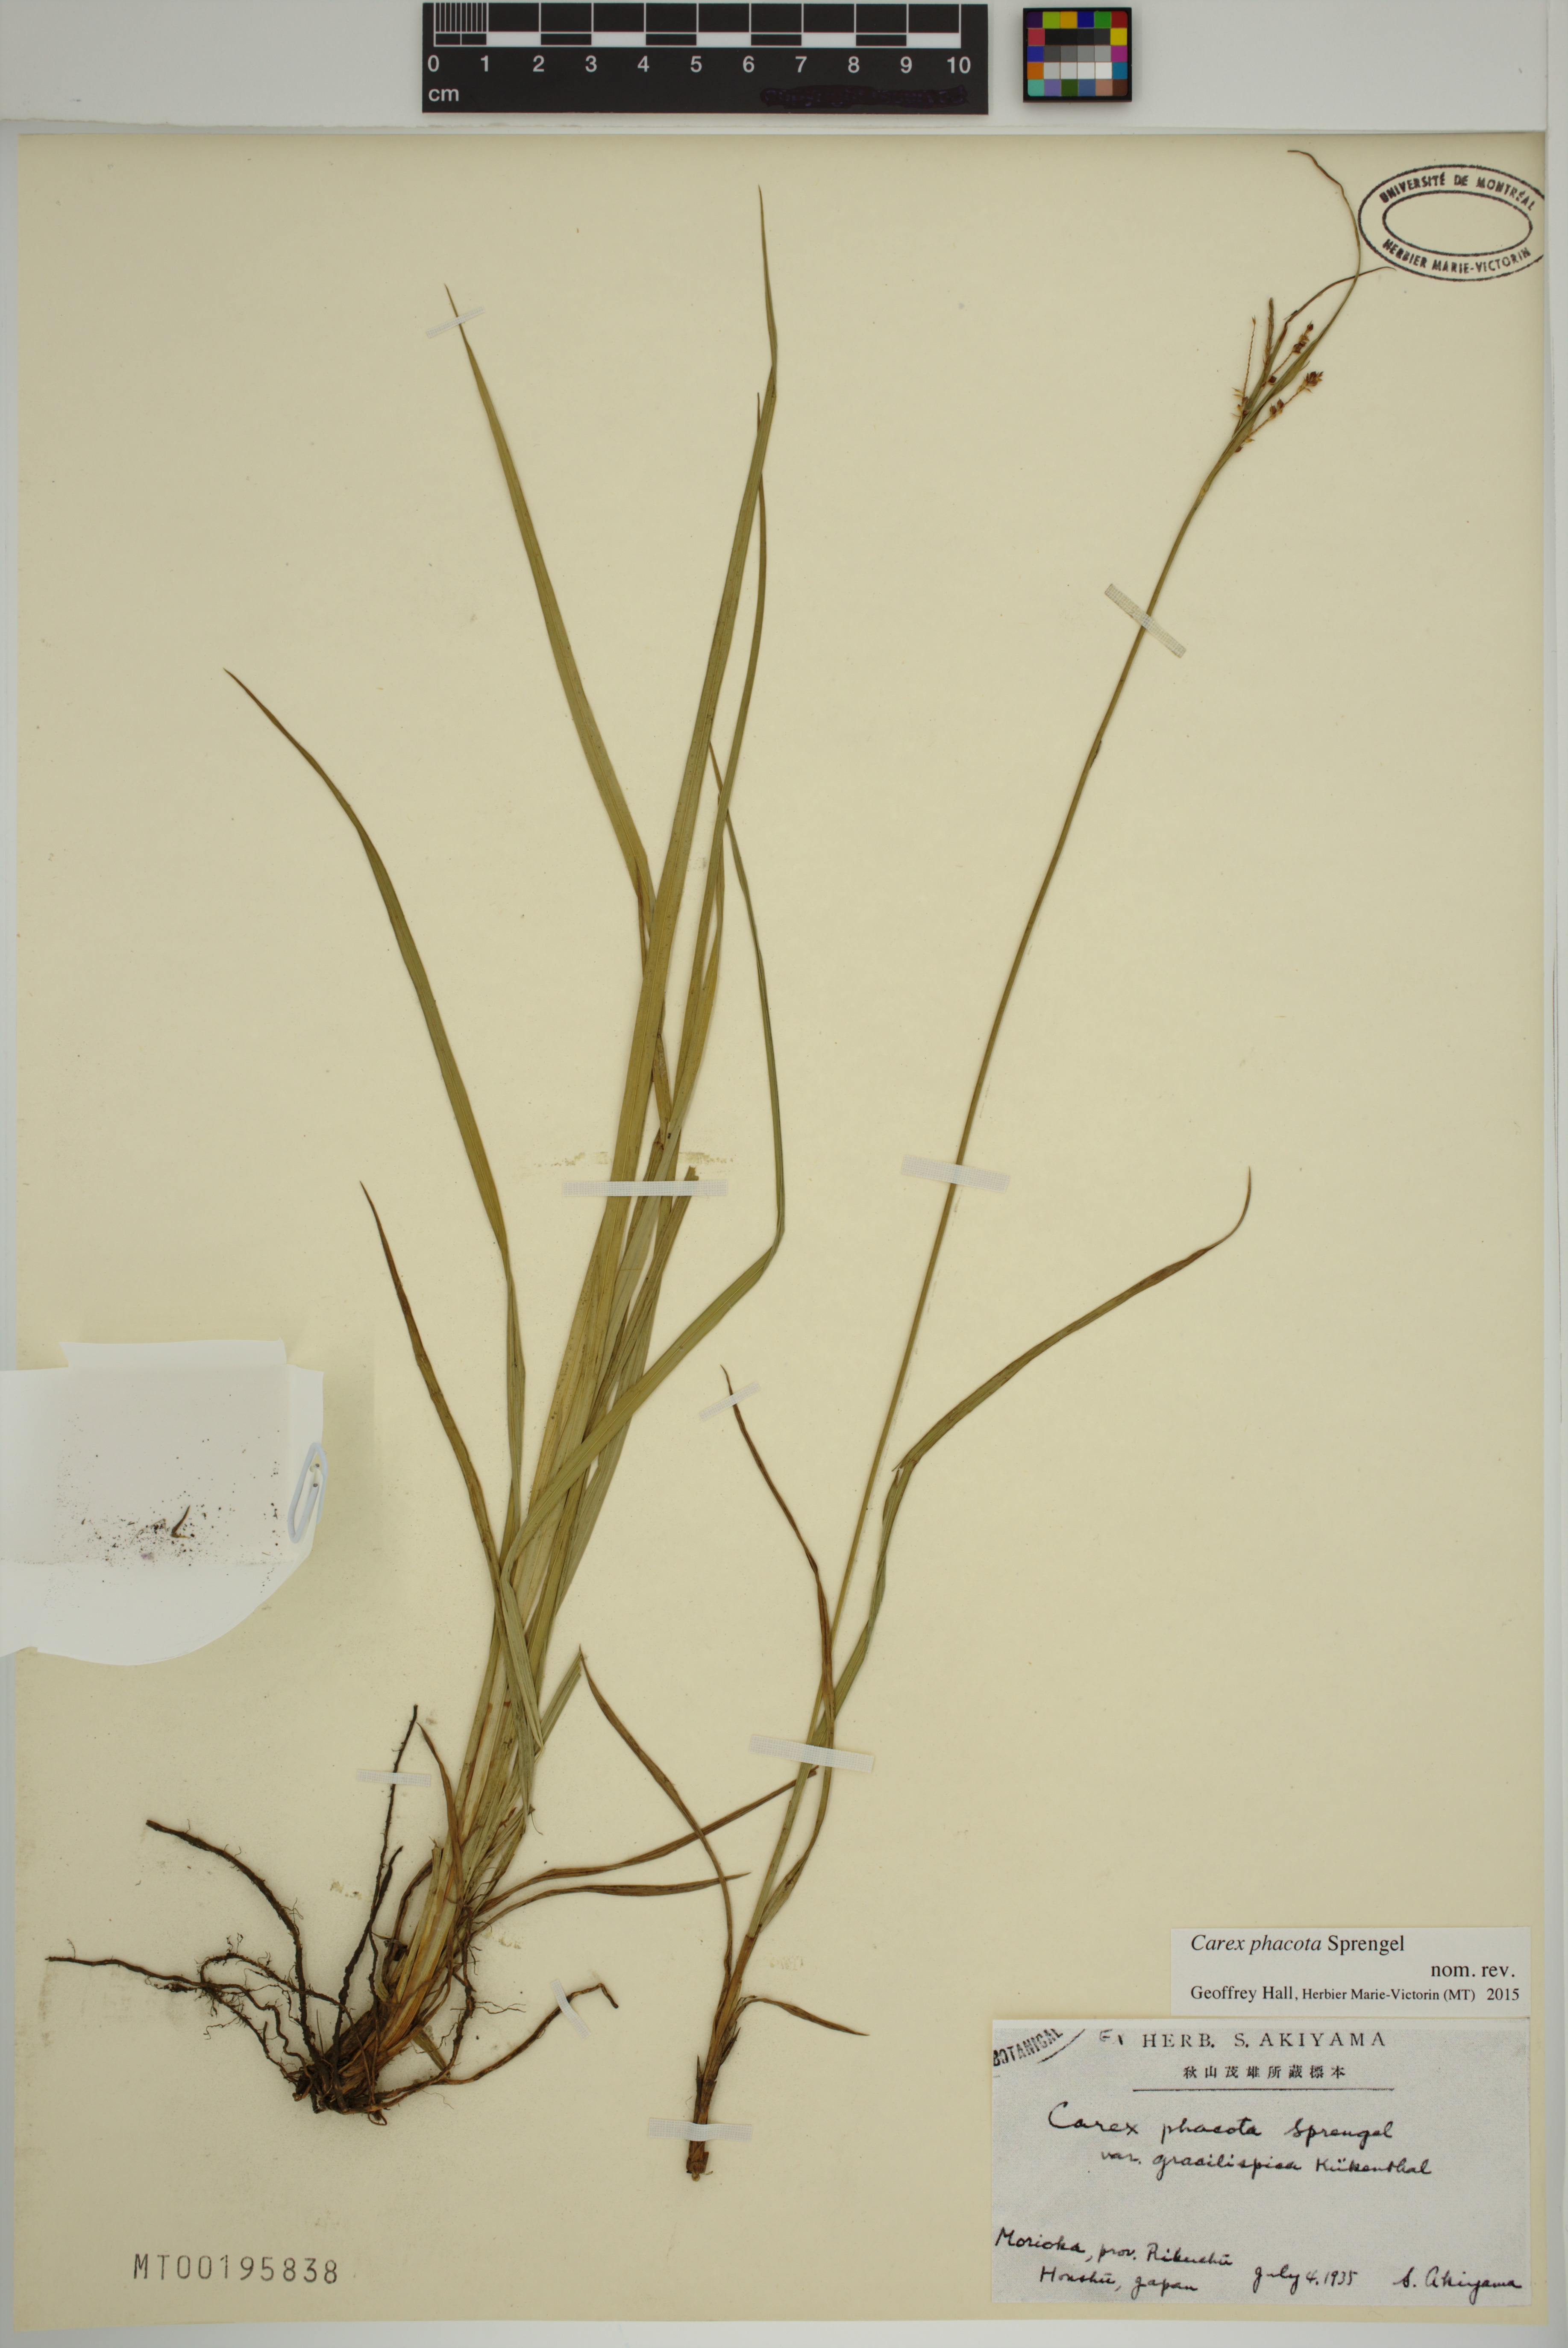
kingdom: Plantae
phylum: Tracheophyta
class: Liliopsida
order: Poales
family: Cyperaceae
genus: Carex
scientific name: Carex phacota
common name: Lakeshore sedge
